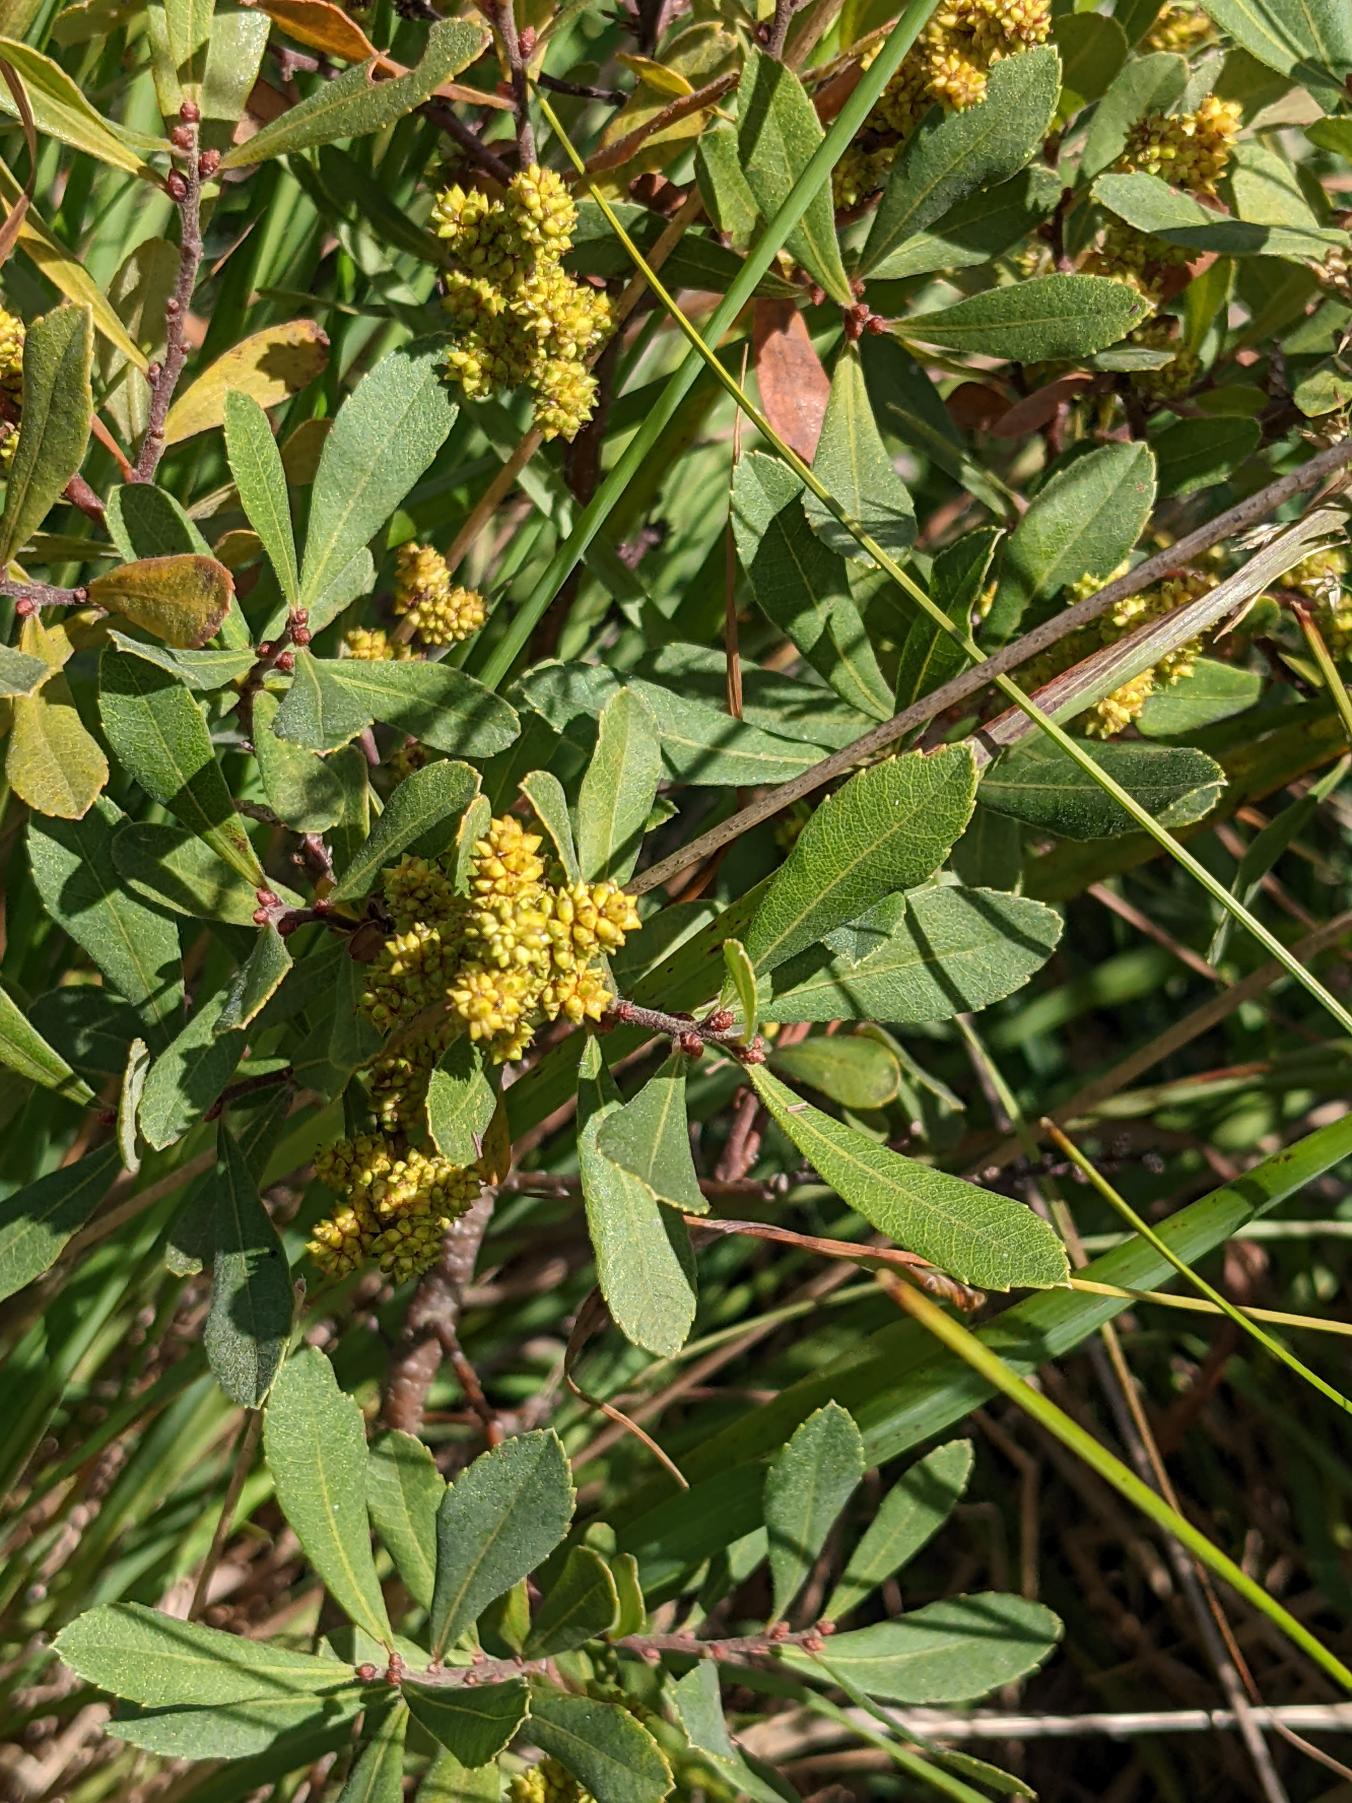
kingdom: Plantae
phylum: Tracheophyta
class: Magnoliopsida
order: Fagales
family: Myricaceae
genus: Myrica
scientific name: Myrica gale
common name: Pors
